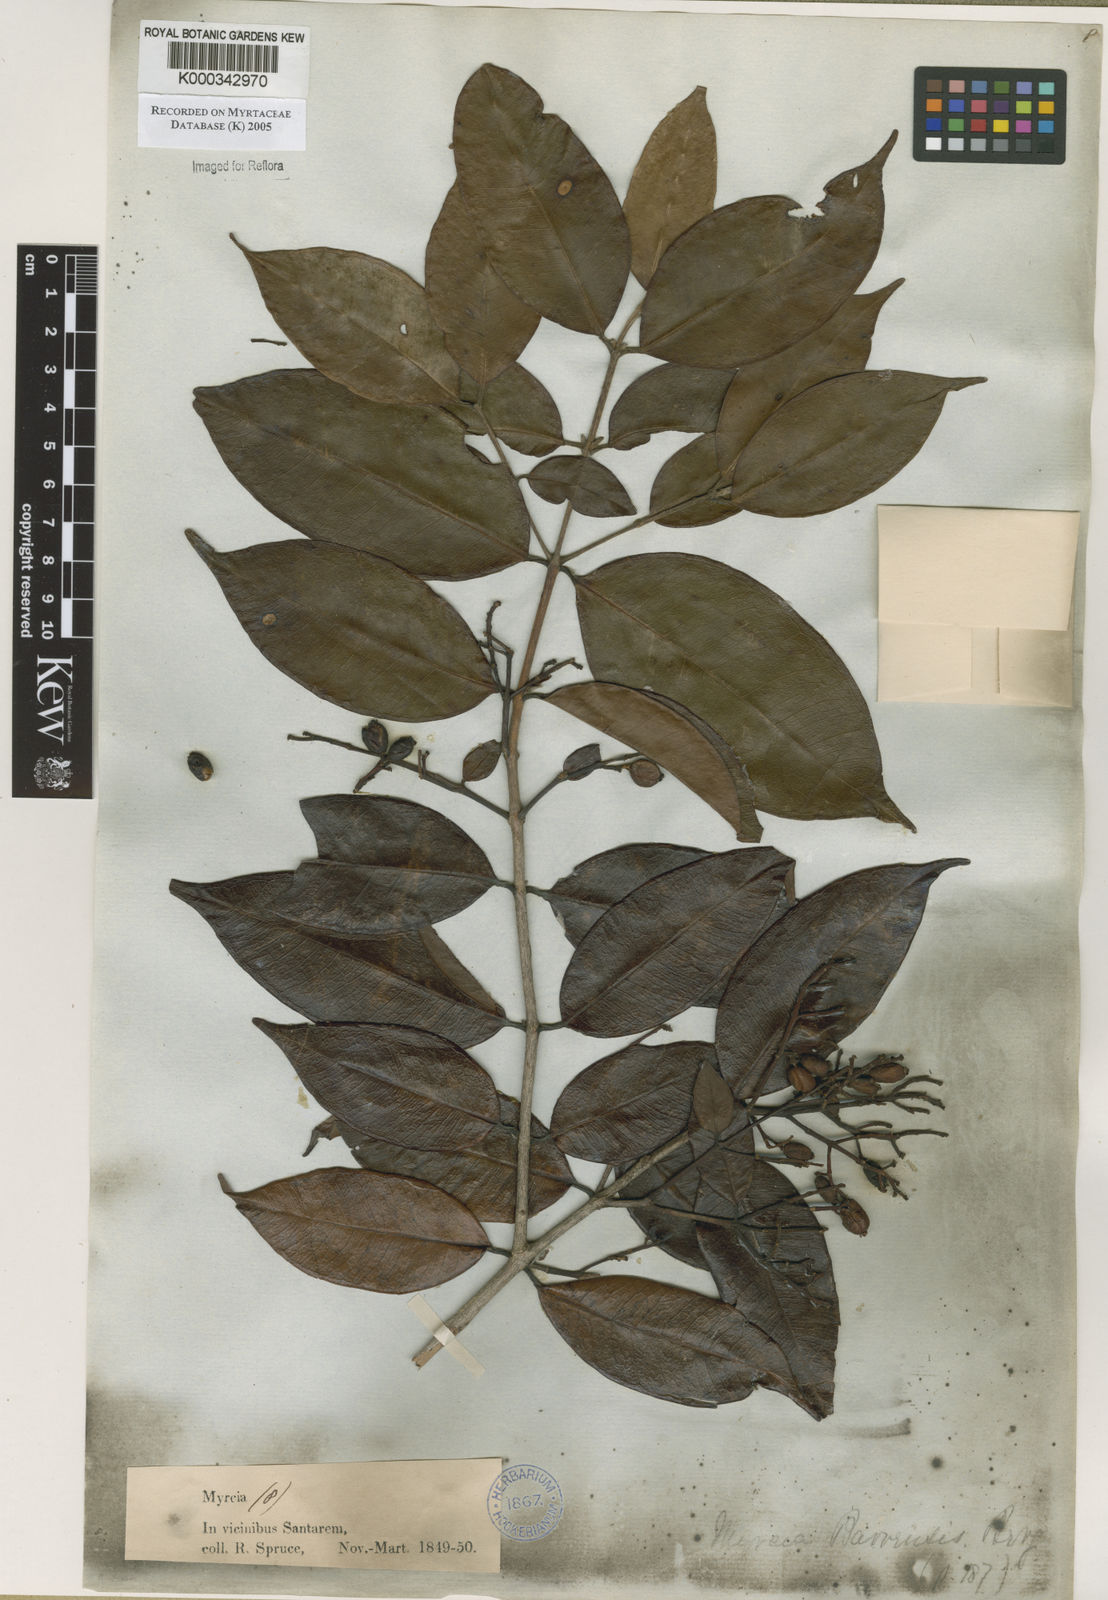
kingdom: Plantae
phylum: Tracheophyta
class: Magnoliopsida
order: Myrtales
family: Myrtaceae
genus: Myrcia
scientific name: Myrcia splendens
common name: Surinam cherry
